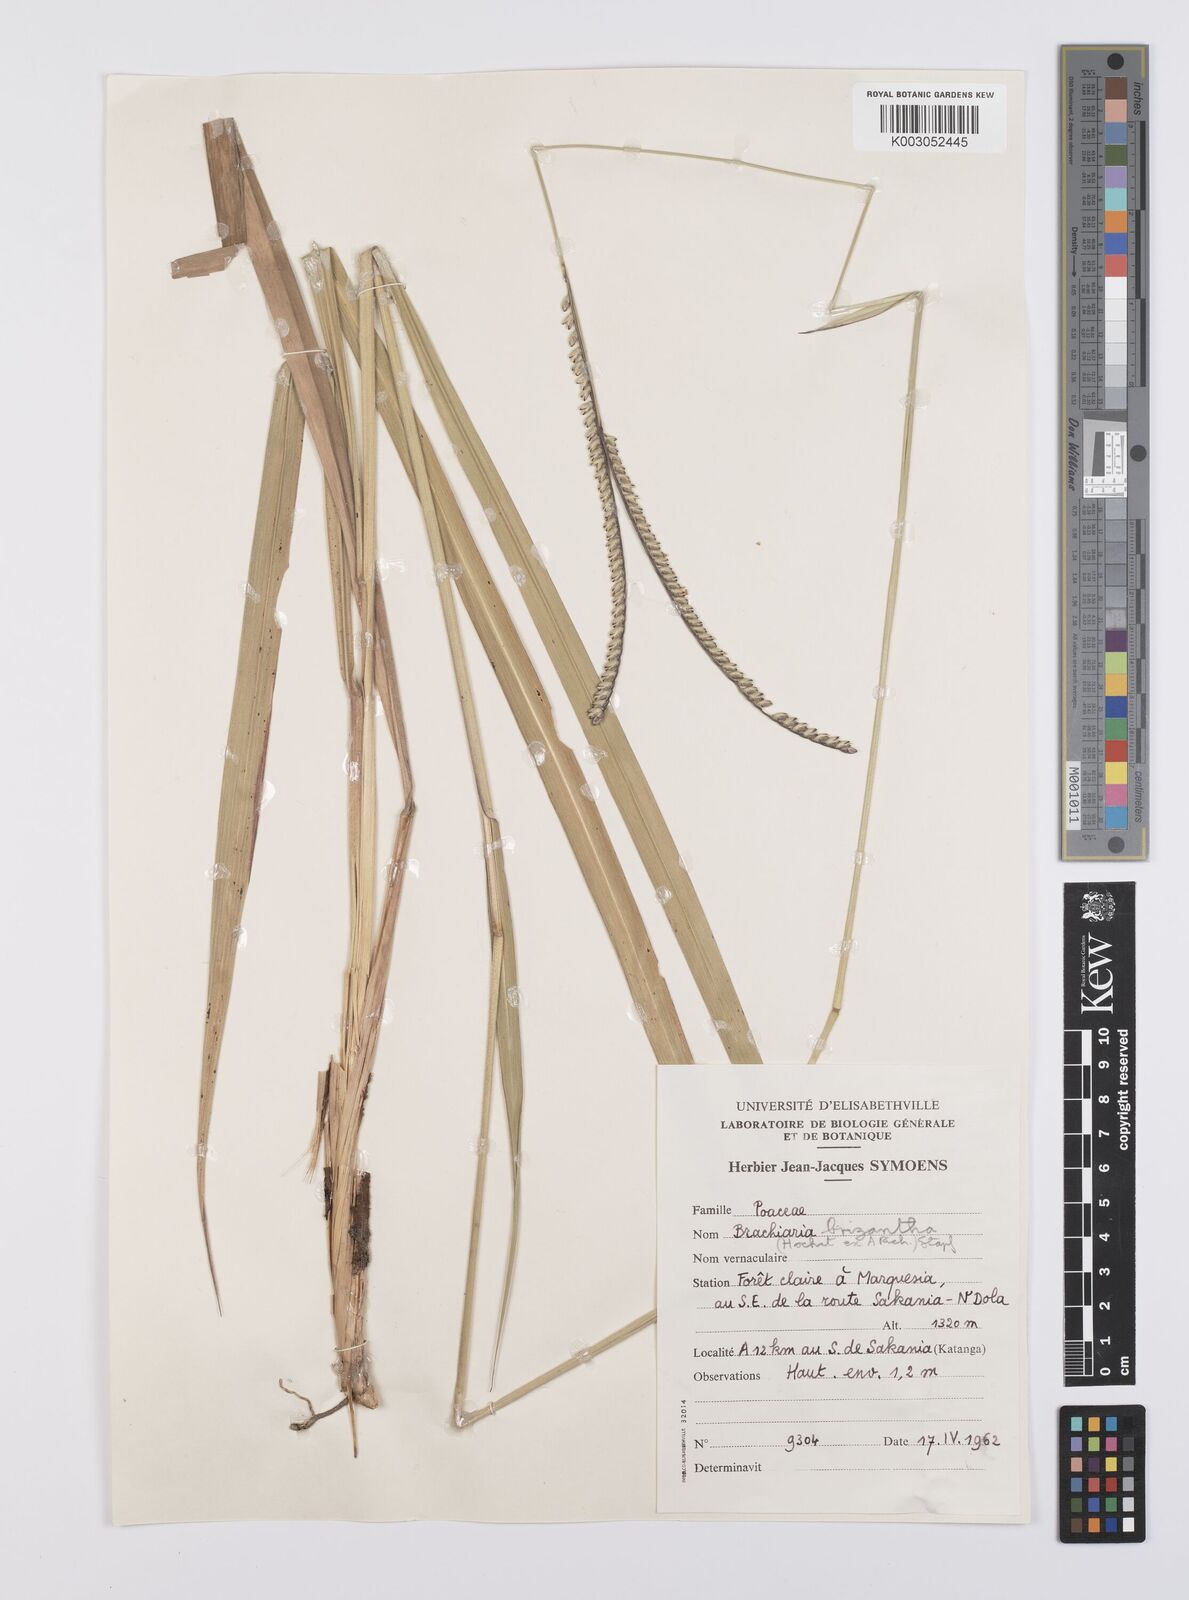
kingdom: Plantae
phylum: Tracheophyta
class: Liliopsida
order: Poales
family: Poaceae
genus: Urochloa
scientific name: Urochloa brizantha
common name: Palisade signalgrass
